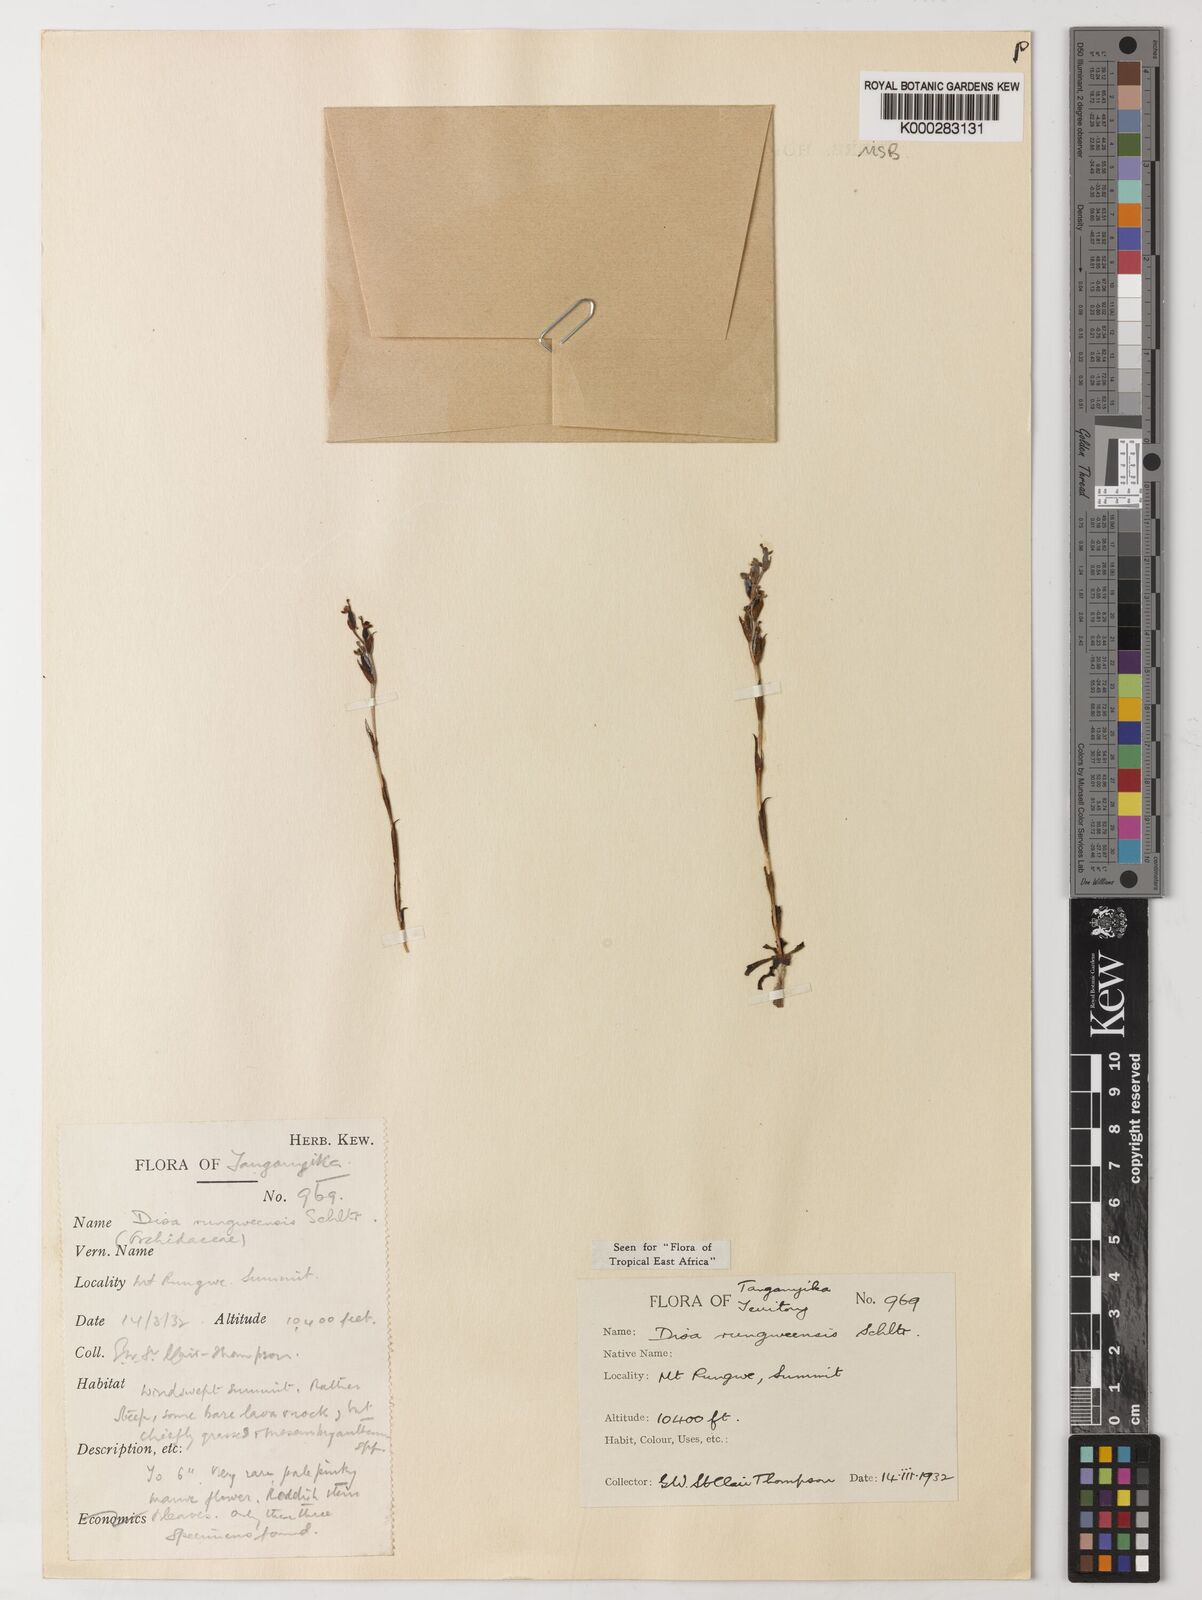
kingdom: Plantae
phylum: Tracheophyta
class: Liliopsida
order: Asparagales
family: Orchidaceae
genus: Disa
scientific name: Disa rungweensis
